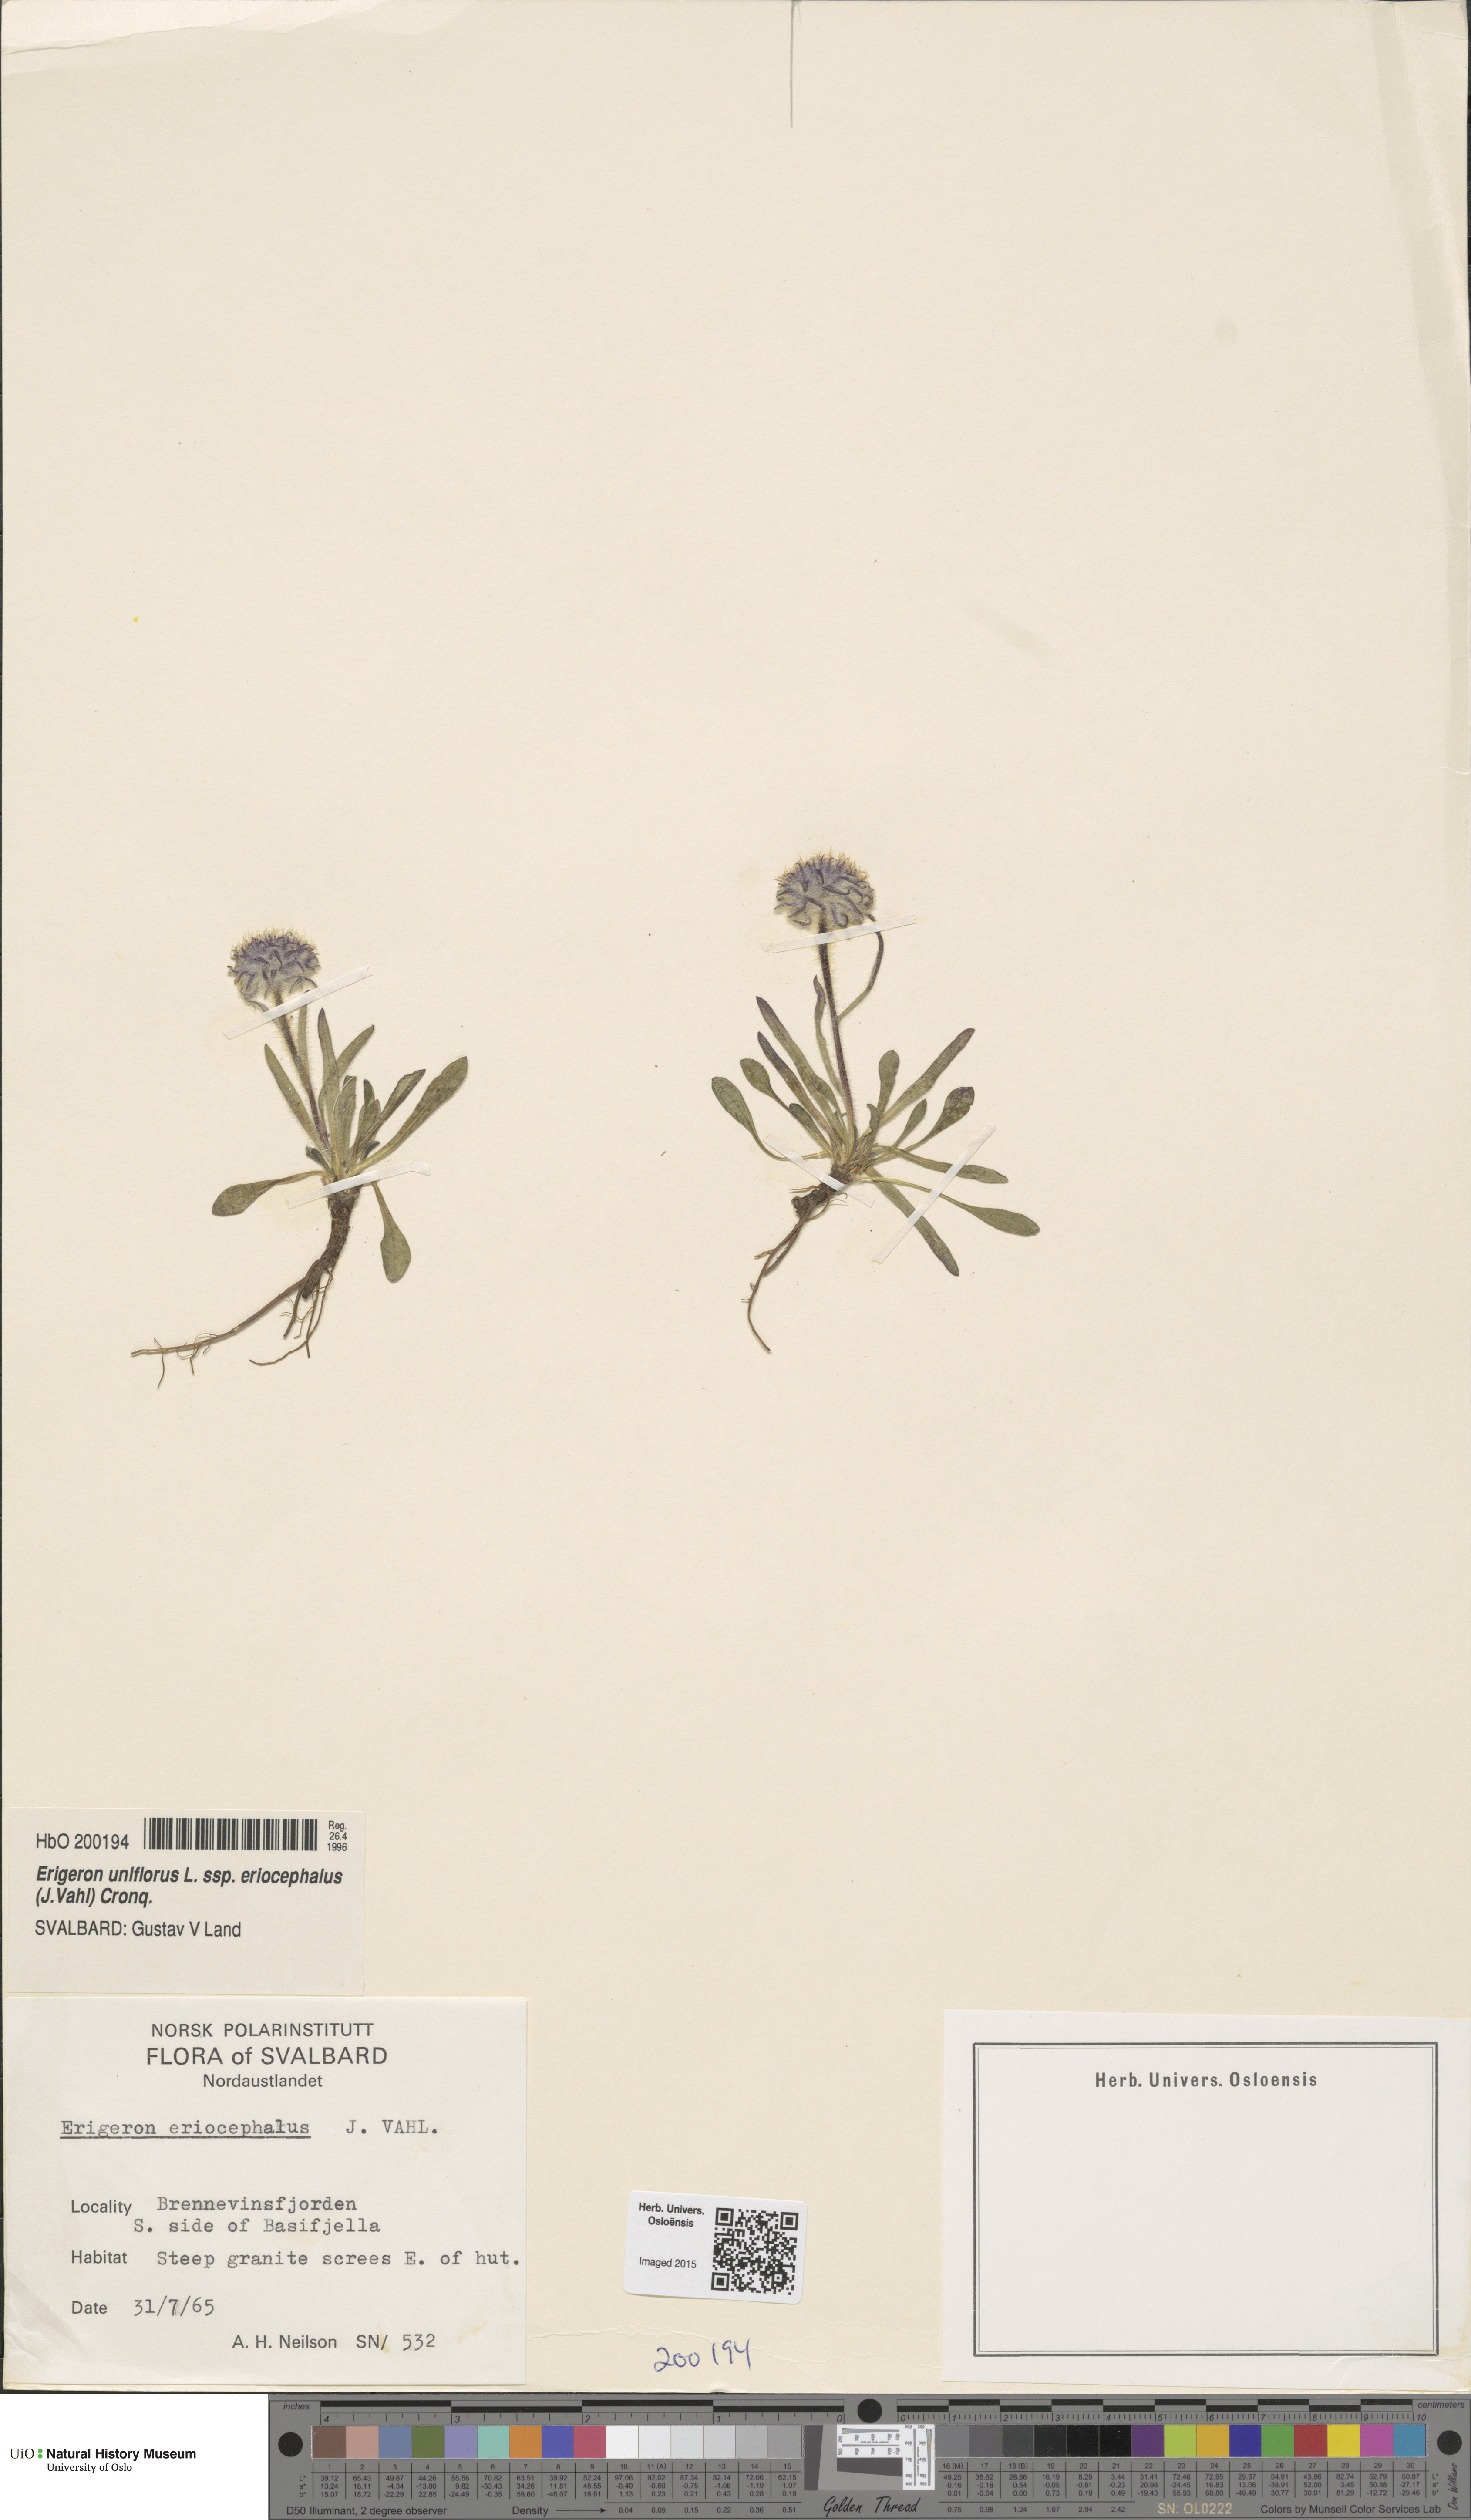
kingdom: Plantae
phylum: Tracheophyta
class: Magnoliopsida
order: Asterales
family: Asteraceae
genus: Erigeron
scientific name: Erigeron eriocephalus
